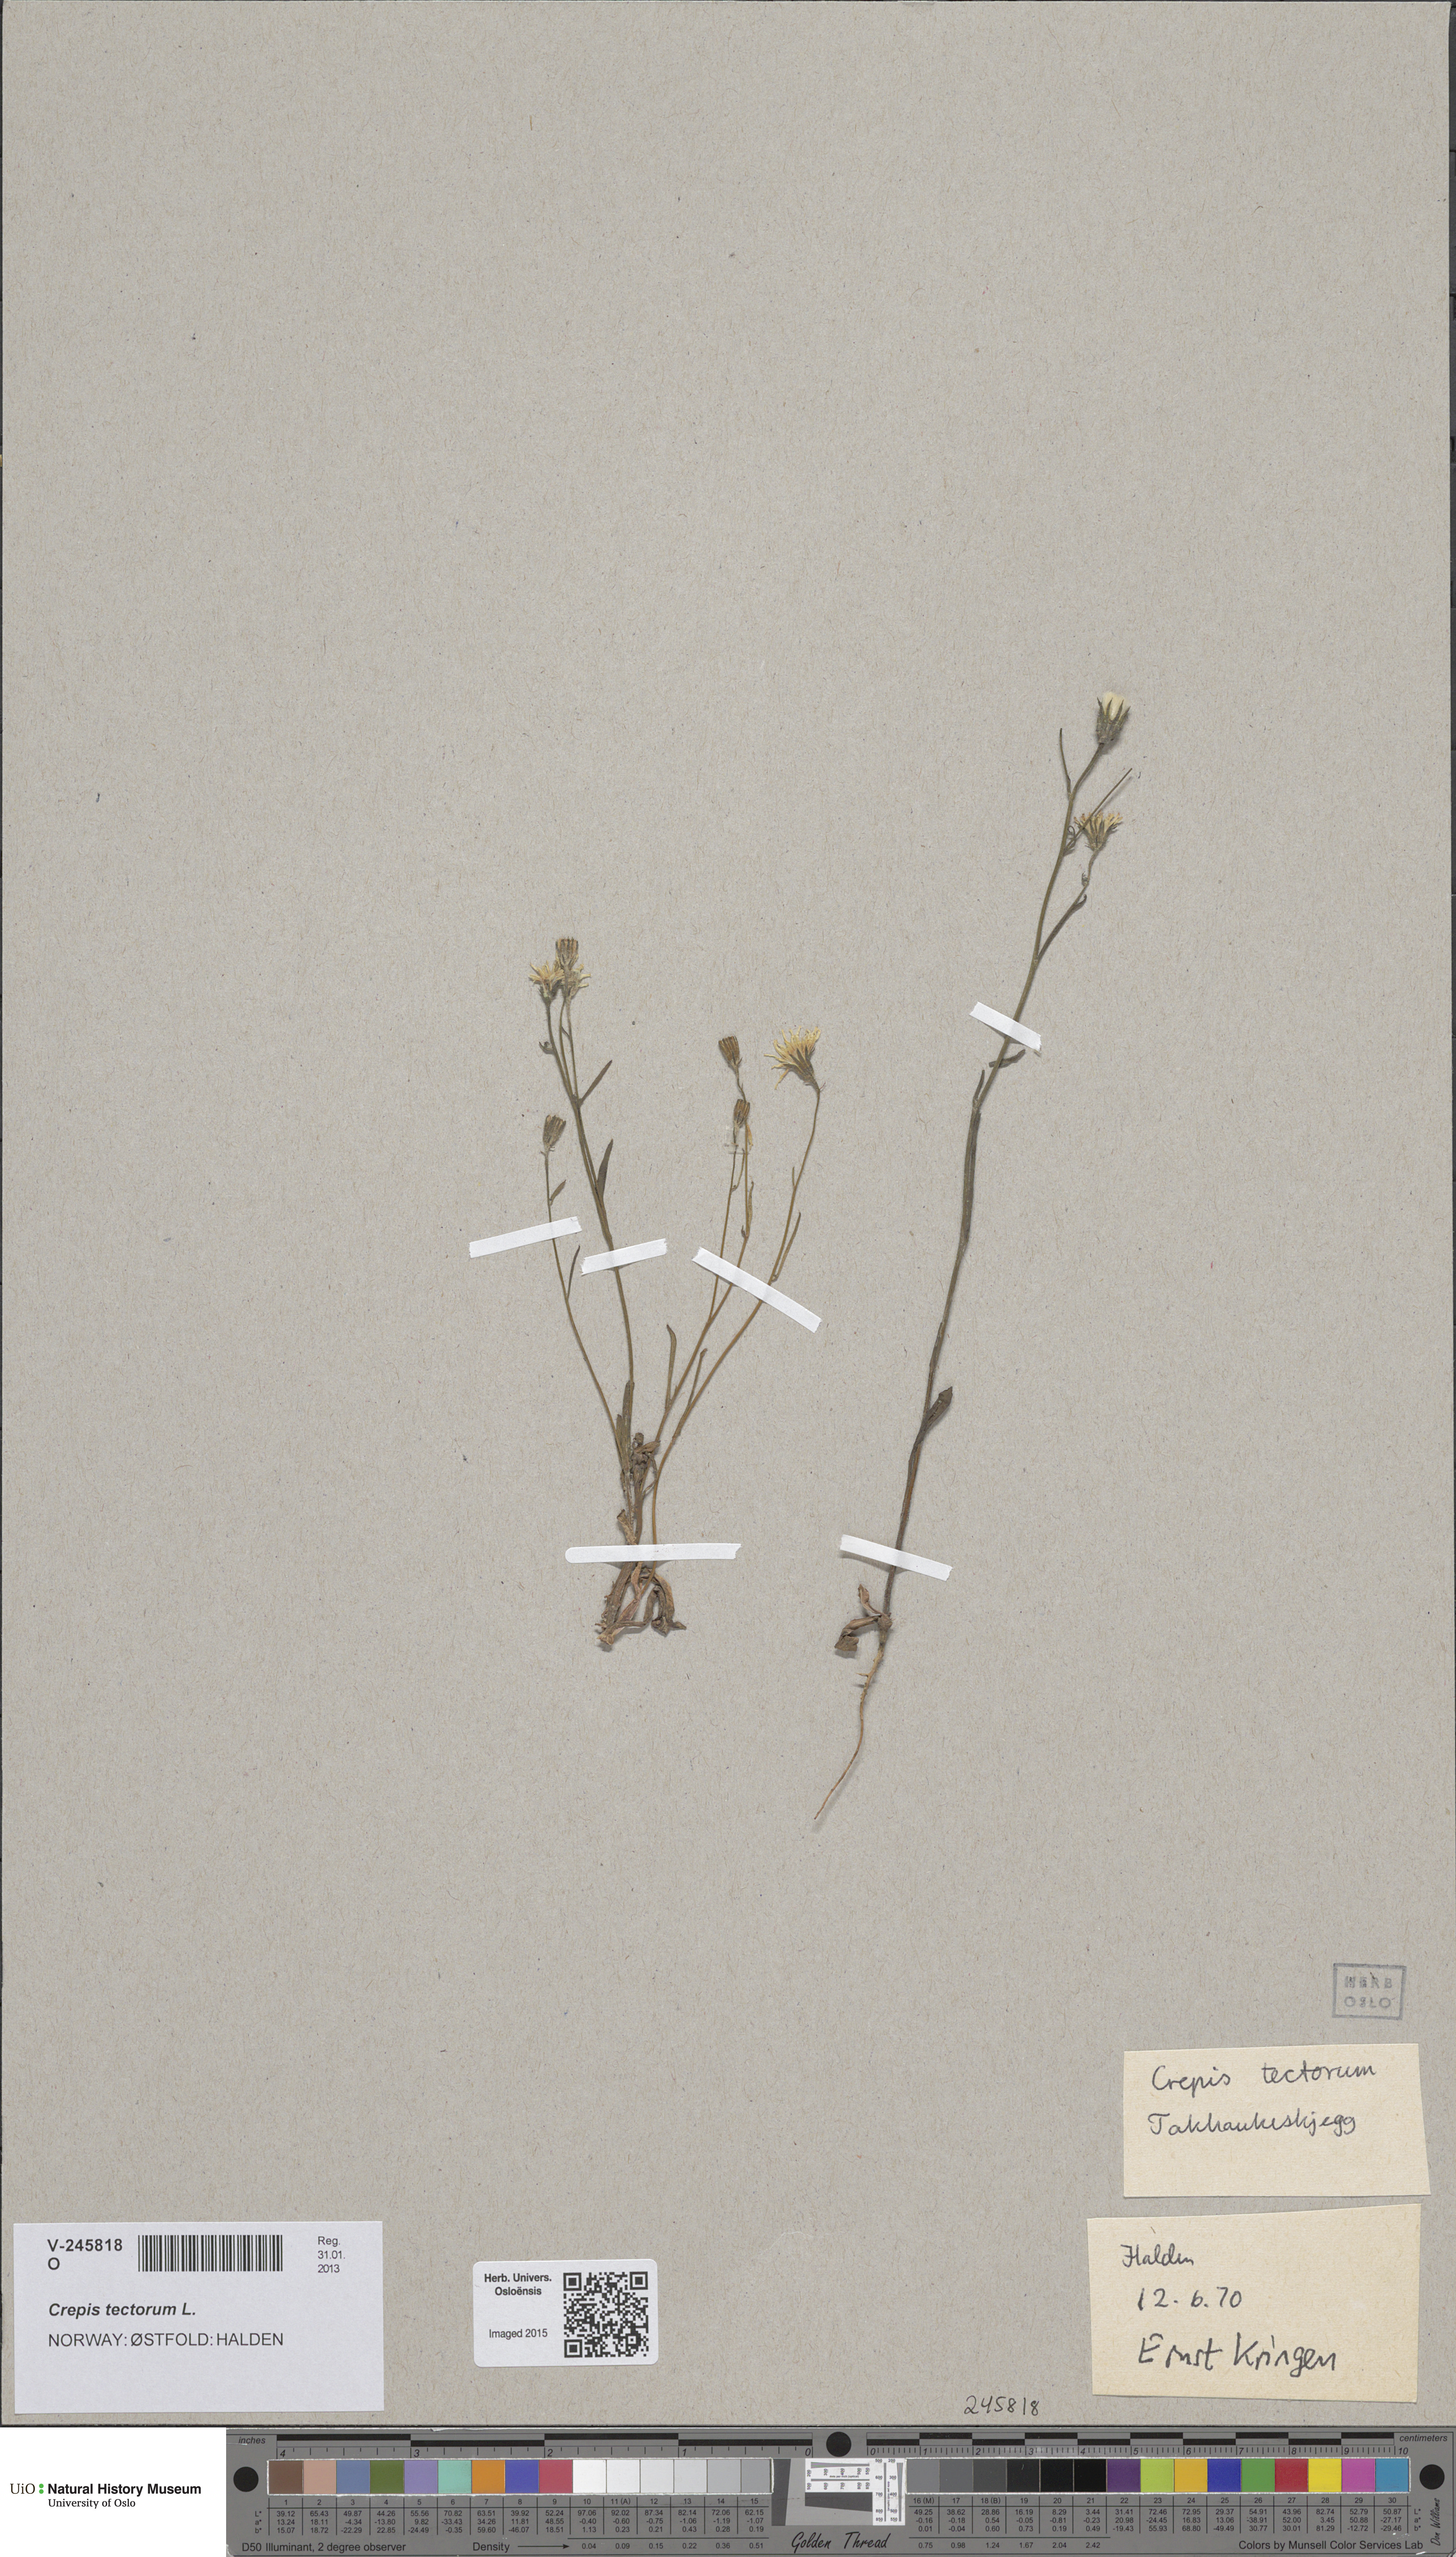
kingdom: Plantae
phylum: Tracheophyta
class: Magnoliopsida
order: Asterales
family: Asteraceae
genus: Crepis
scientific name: Crepis tectorum
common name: Narrow-leaved hawk's-beard
